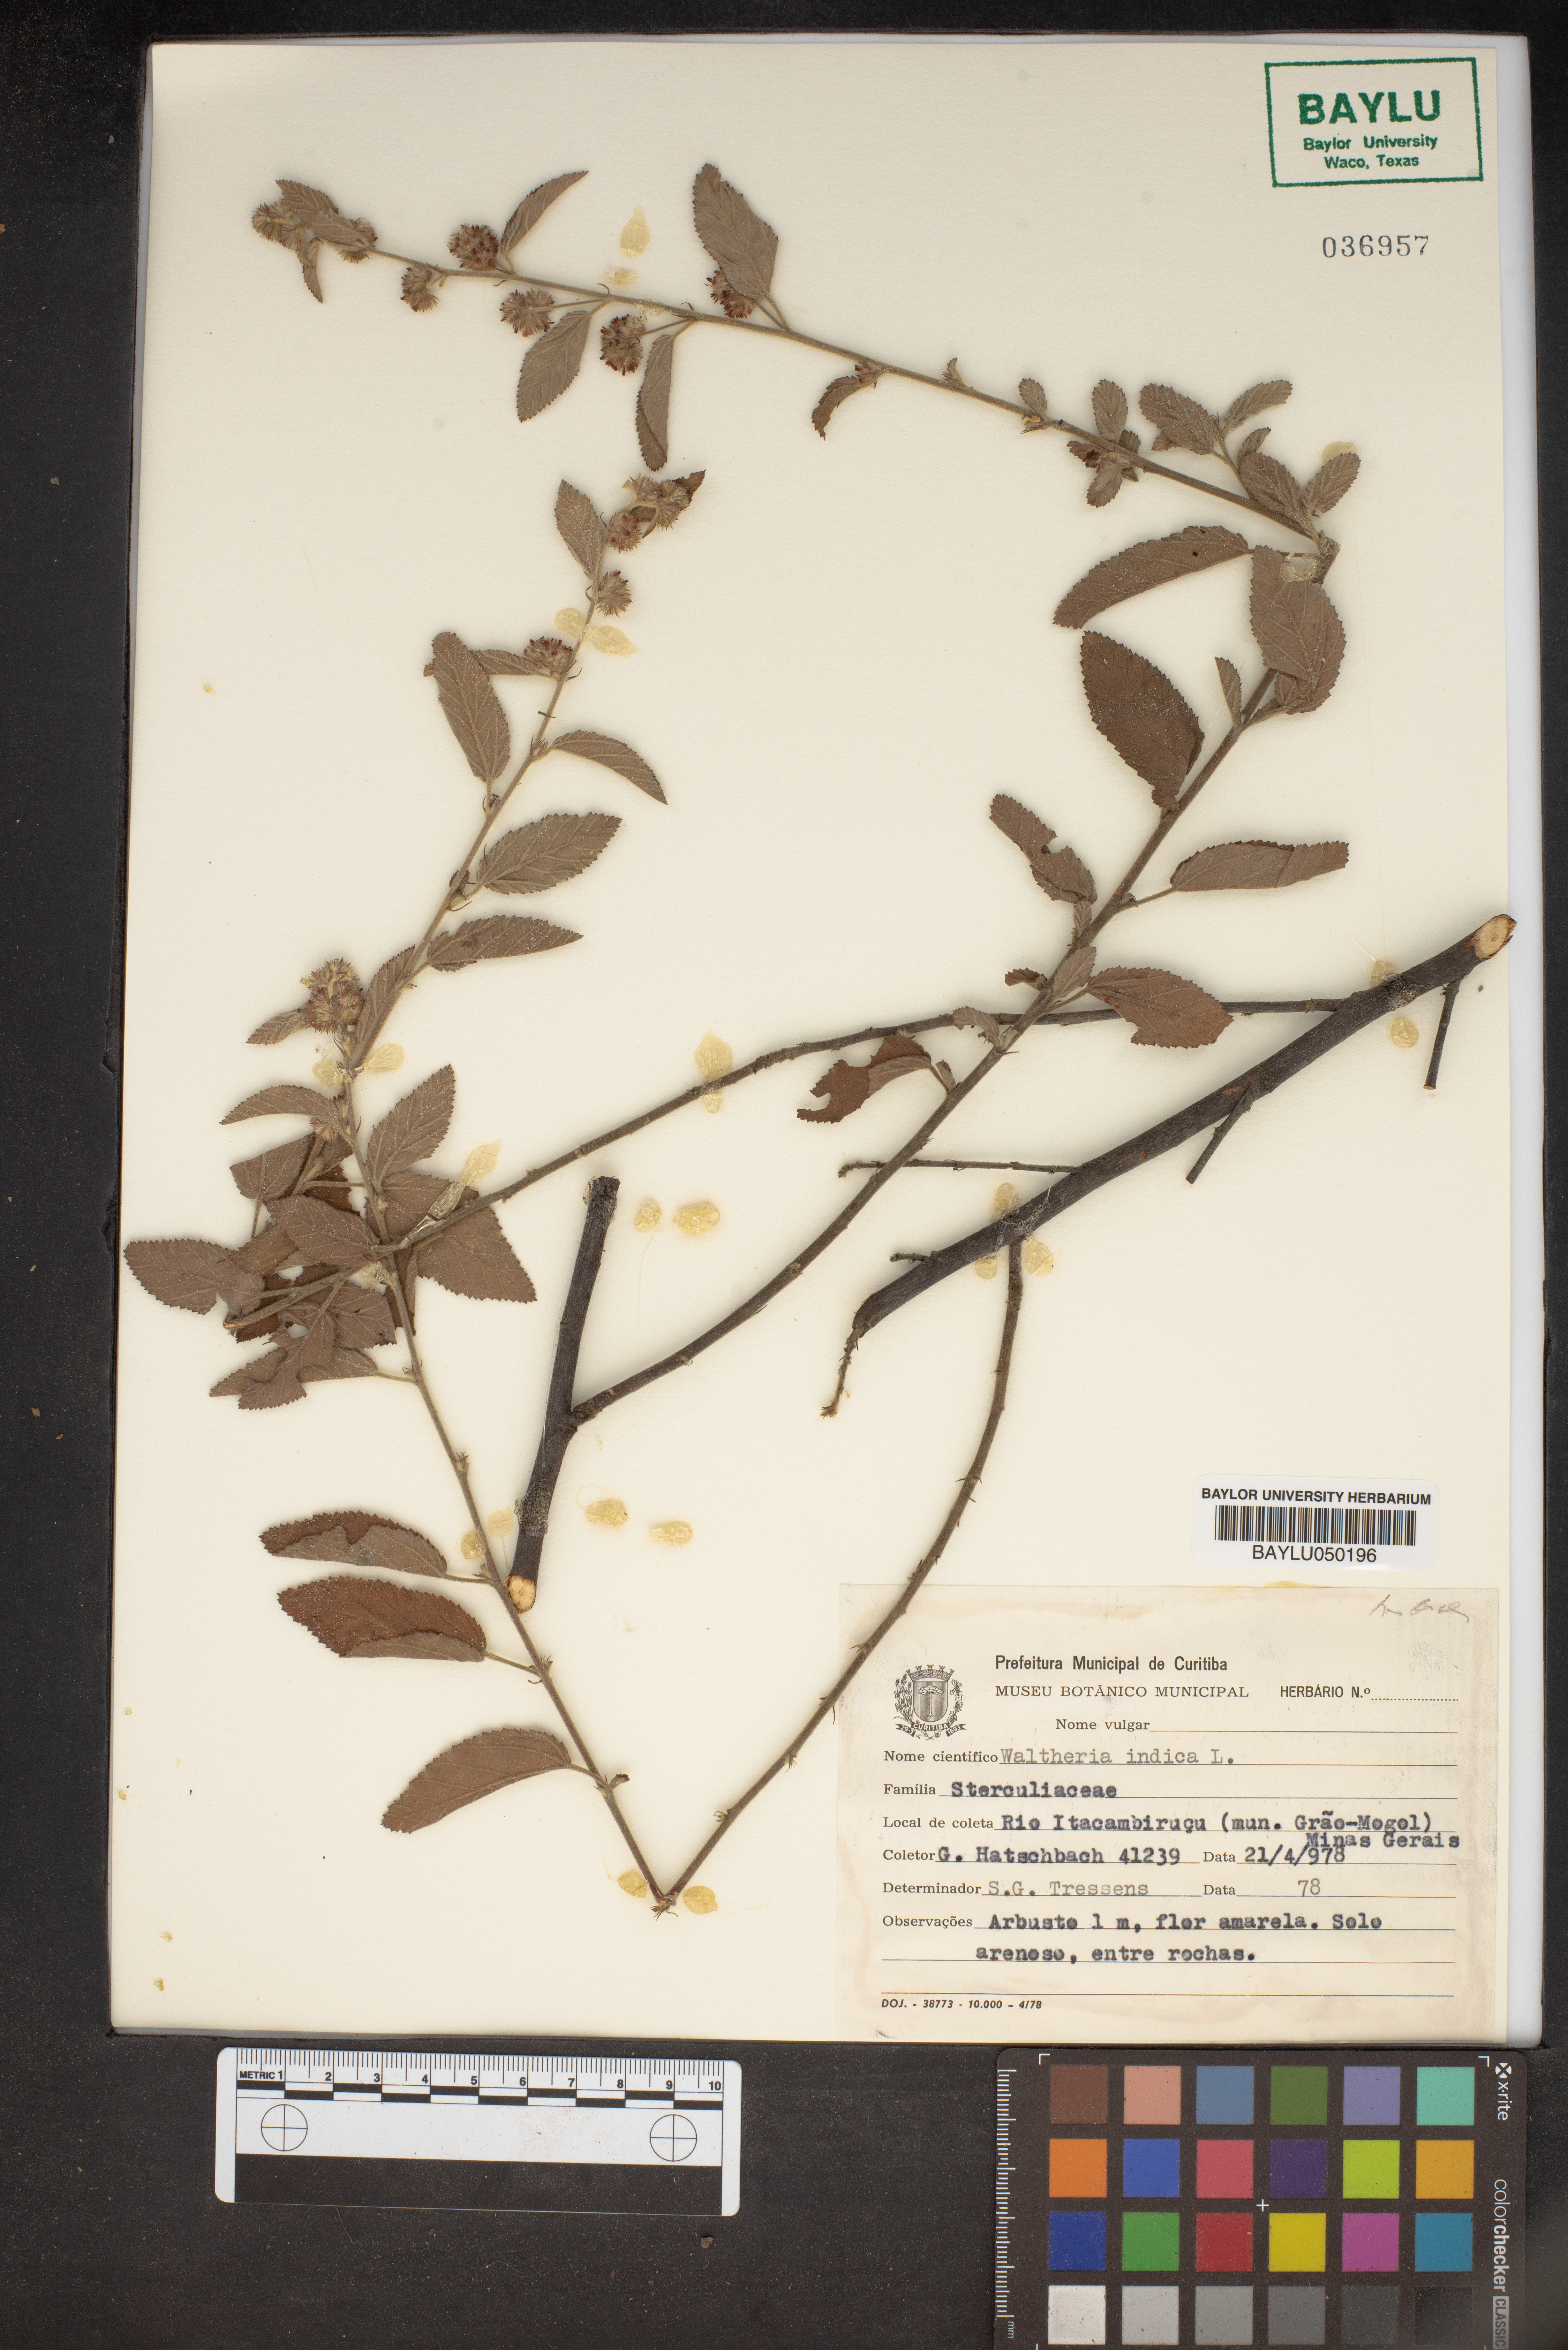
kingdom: Plantae
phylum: Tracheophyta
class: Magnoliopsida
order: Malvales
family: Malvaceae
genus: Waltheria
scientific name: Waltheria indica
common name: Leather-coat
